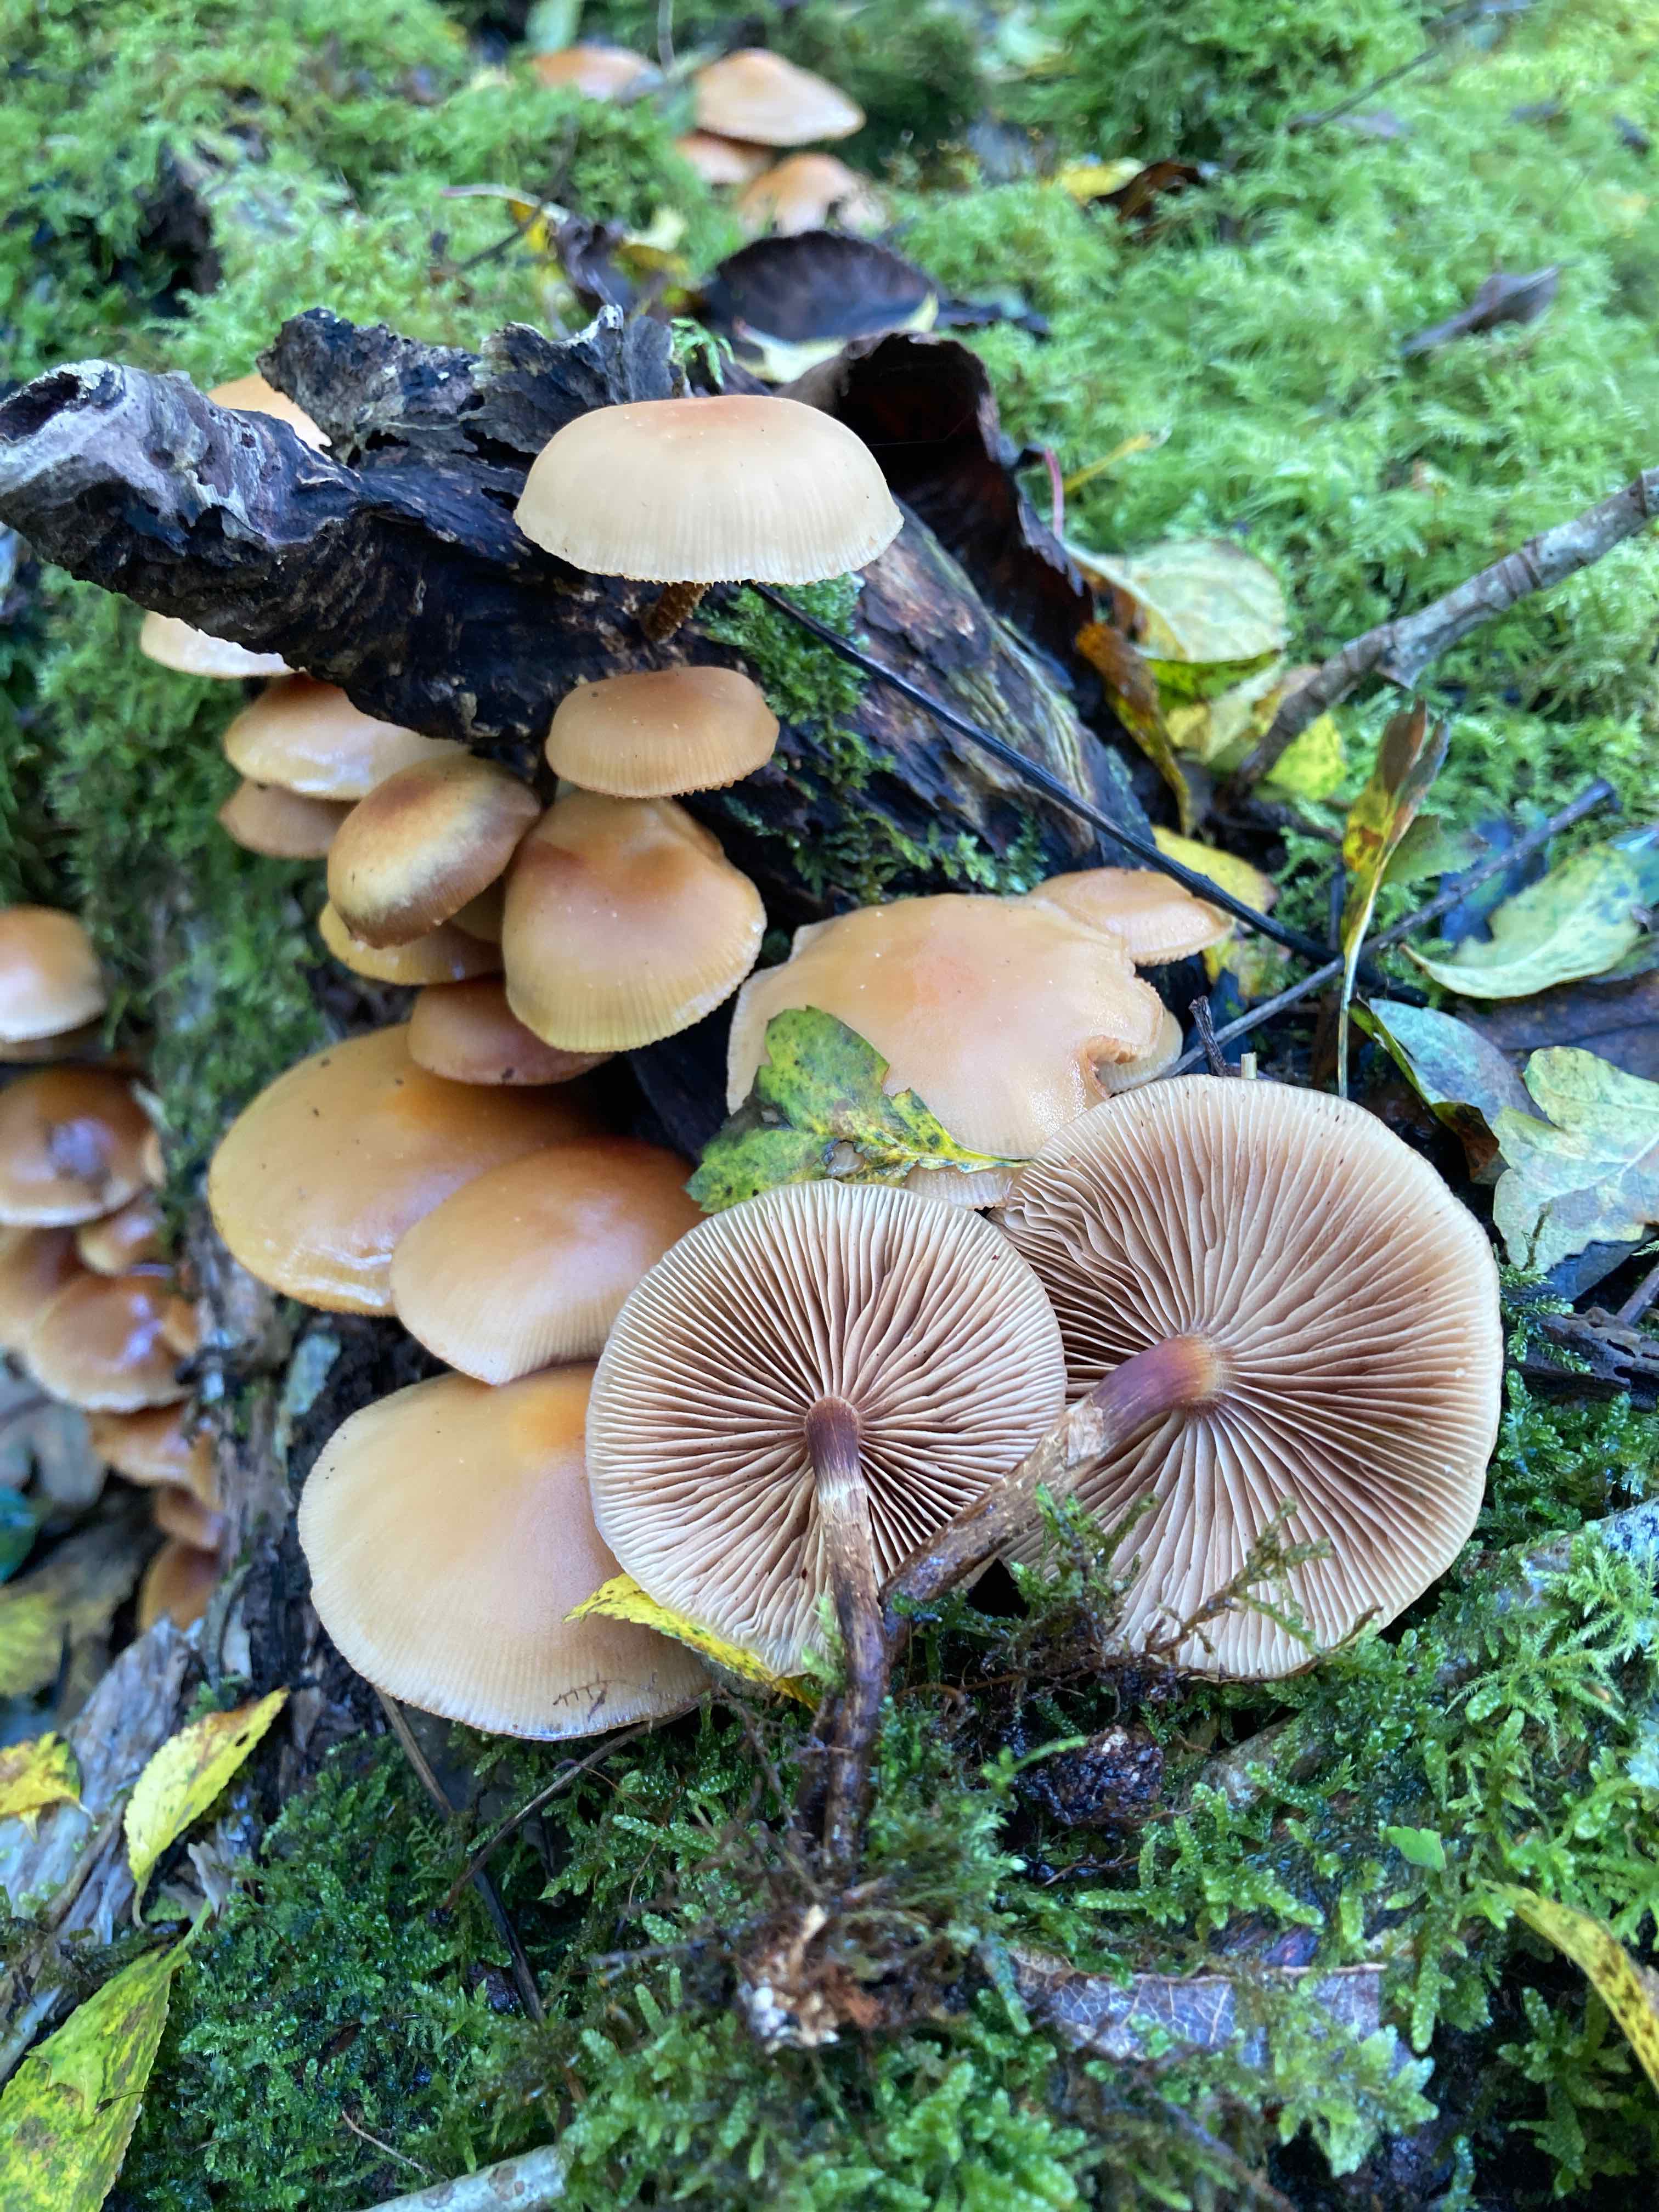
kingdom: Fungi
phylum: Basidiomycota
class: Agaricomycetes
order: Agaricales
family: Strophariaceae
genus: Kuehneromyces
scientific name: Kuehneromyces mutabilis
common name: foranderlig skælhat
